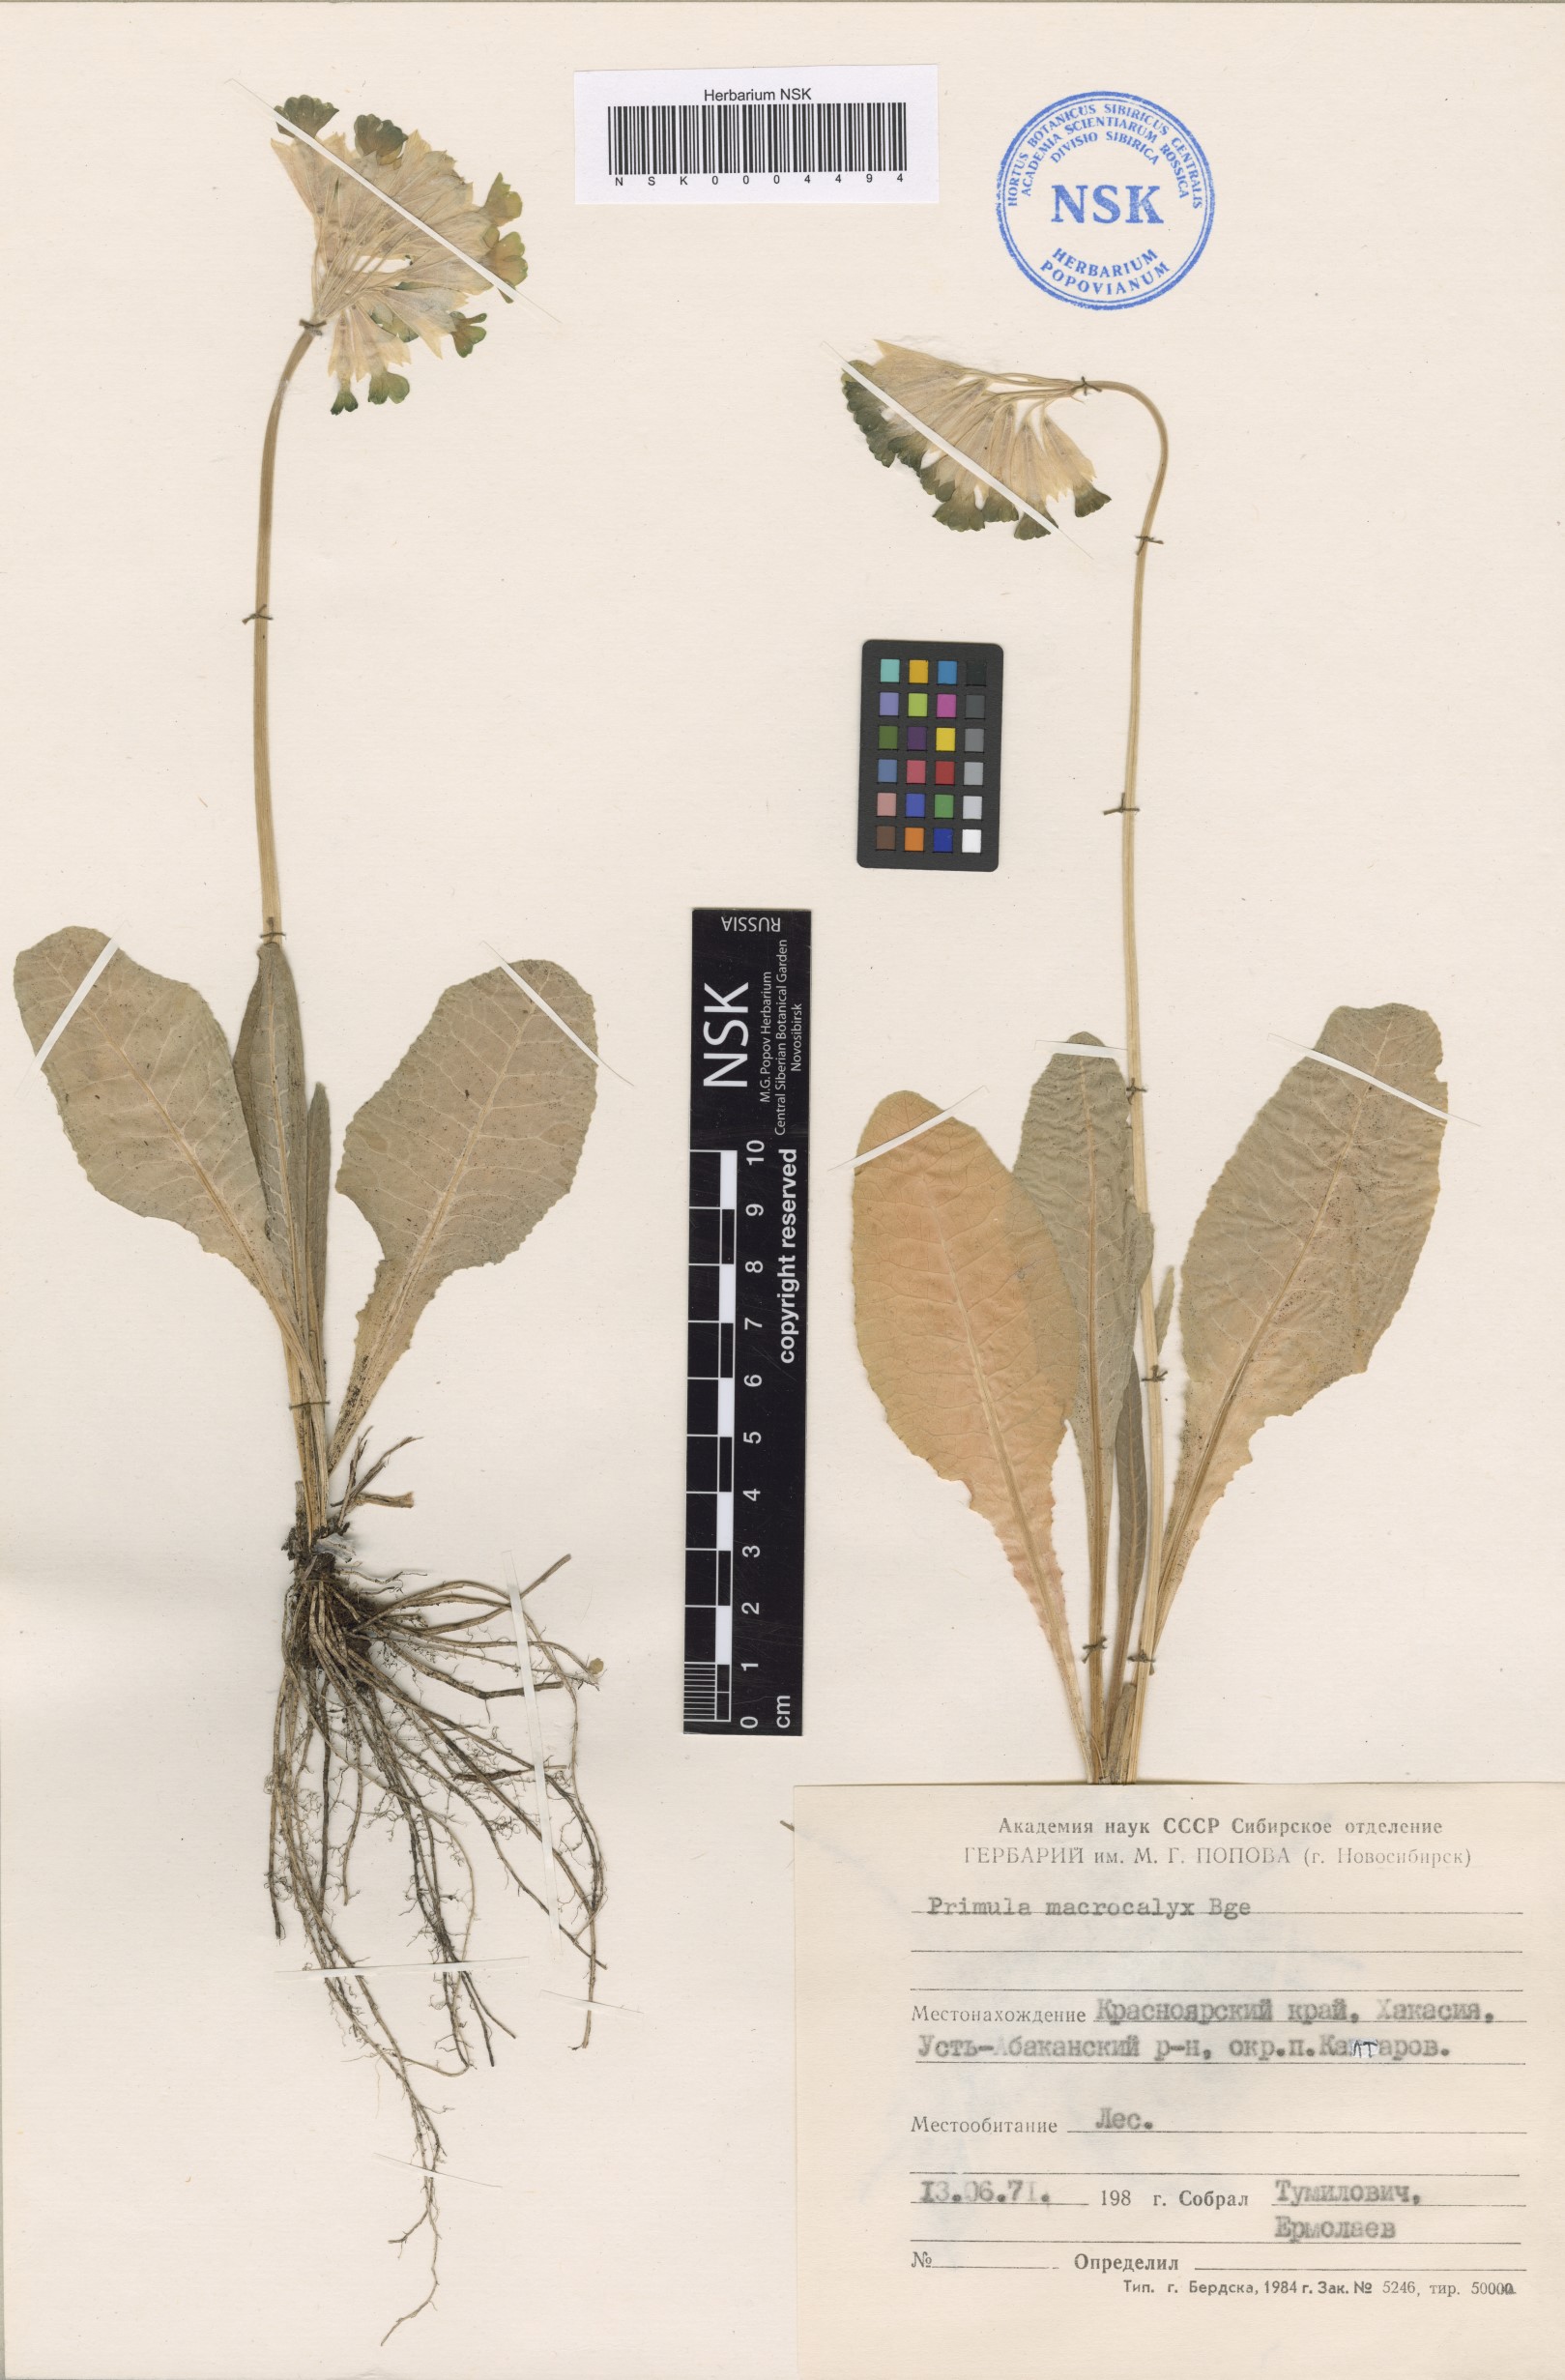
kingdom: Plantae
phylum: Tracheophyta
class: Magnoliopsida
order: Ericales
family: Primulaceae
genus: Primula
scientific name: Primula veris
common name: Cowslip
